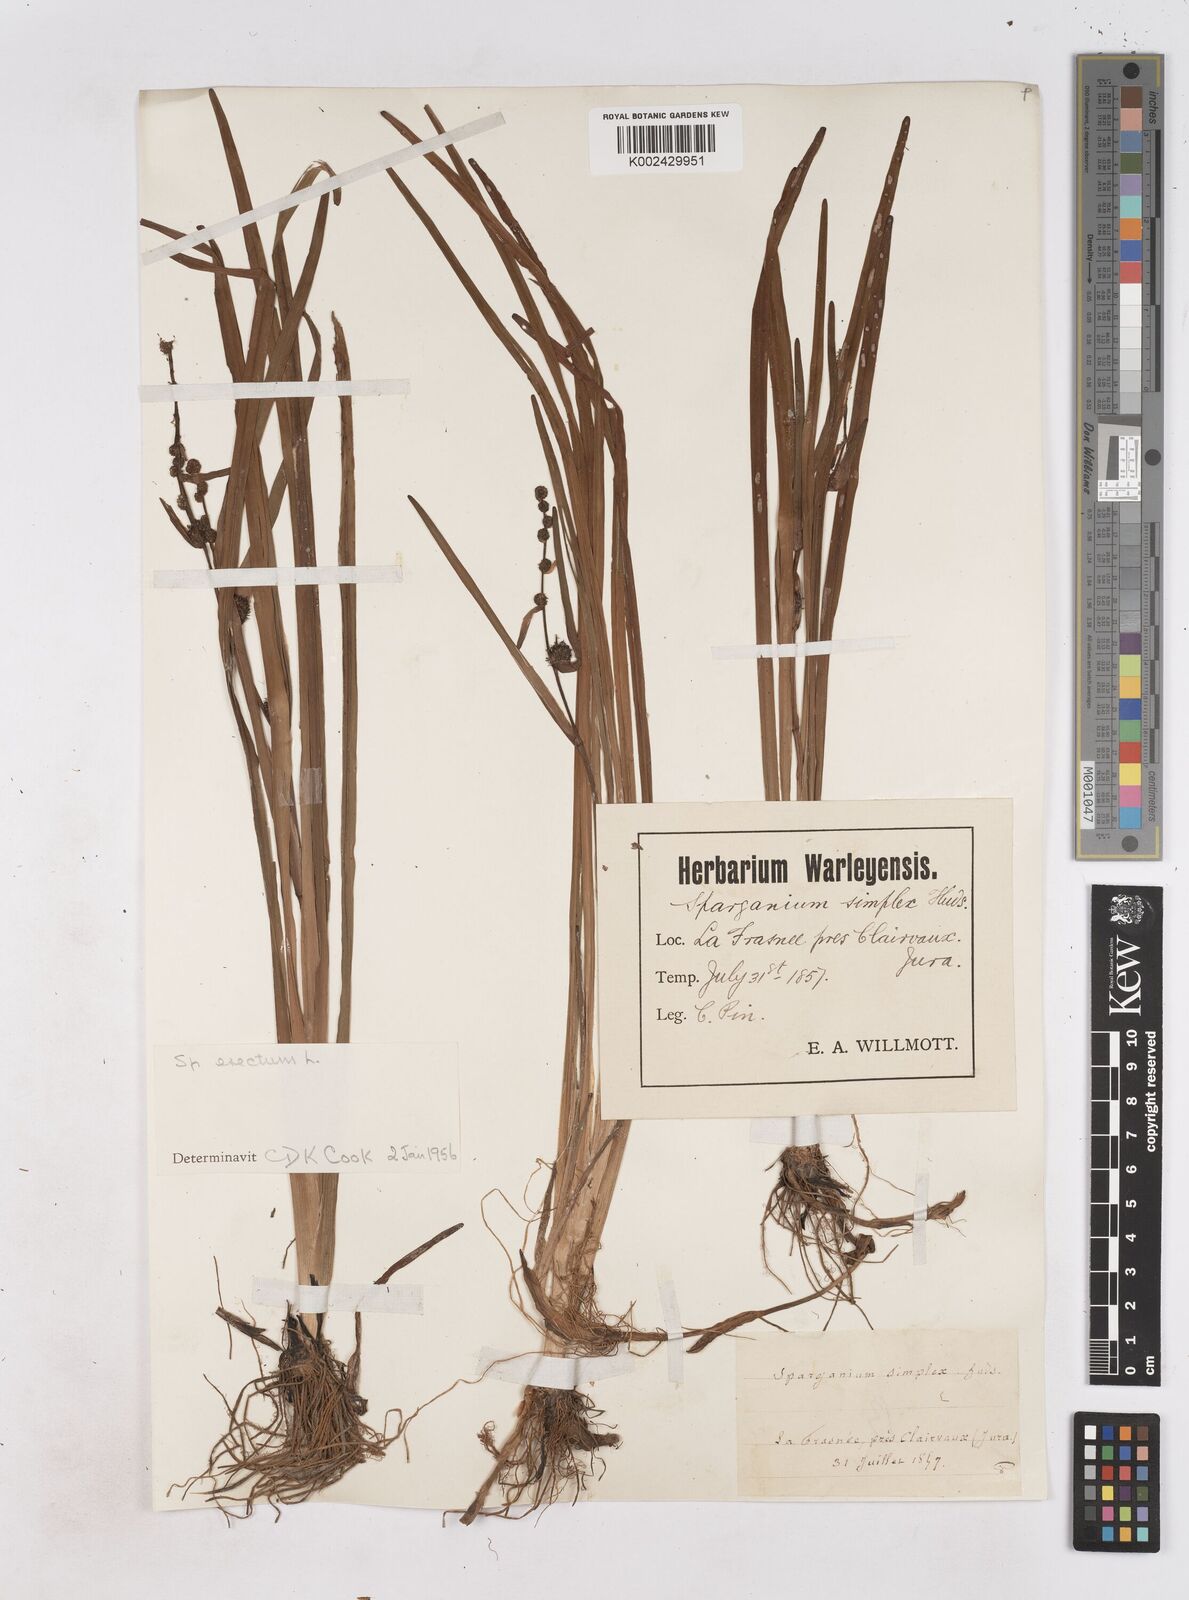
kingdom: Plantae
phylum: Tracheophyta
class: Liliopsida
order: Poales
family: Typhaceae
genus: Sparganium
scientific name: Sparganium erectum
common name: Branched bur-reed
